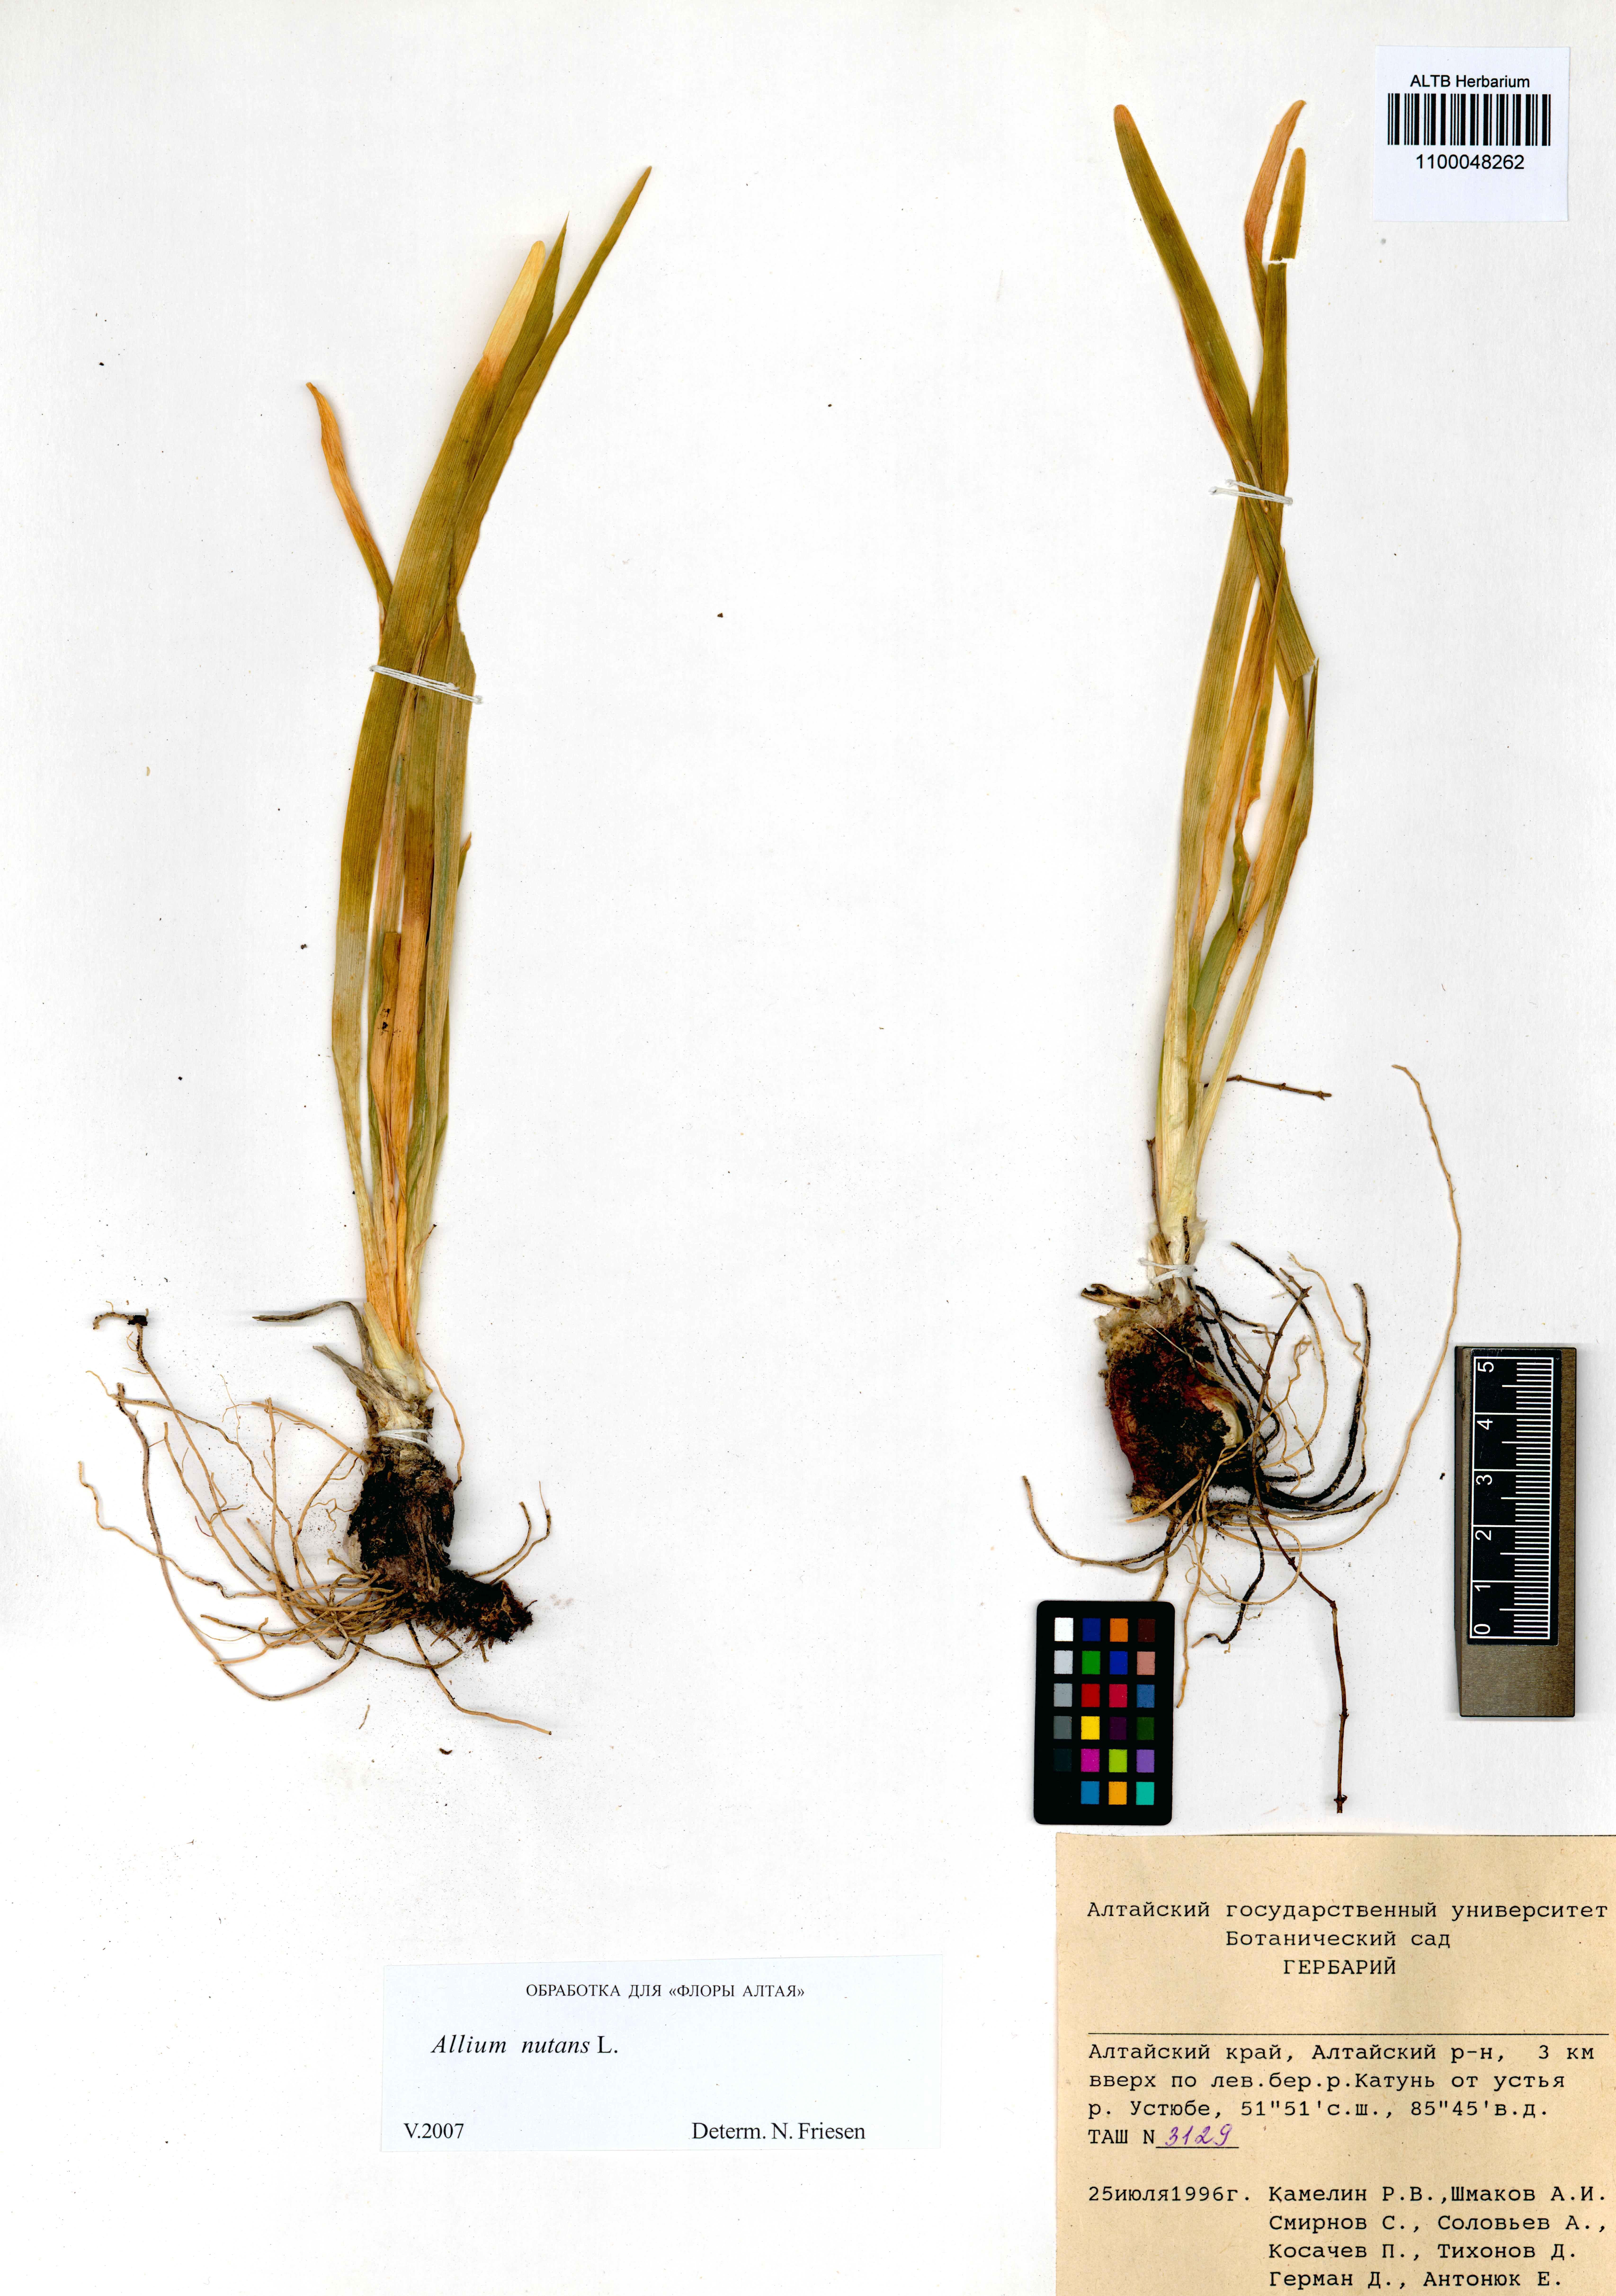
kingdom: Plantae
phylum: Tracheophyta
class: Liliopsida
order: Asparagales
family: Amaryllidaceae
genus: Allium
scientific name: Allium nutans
